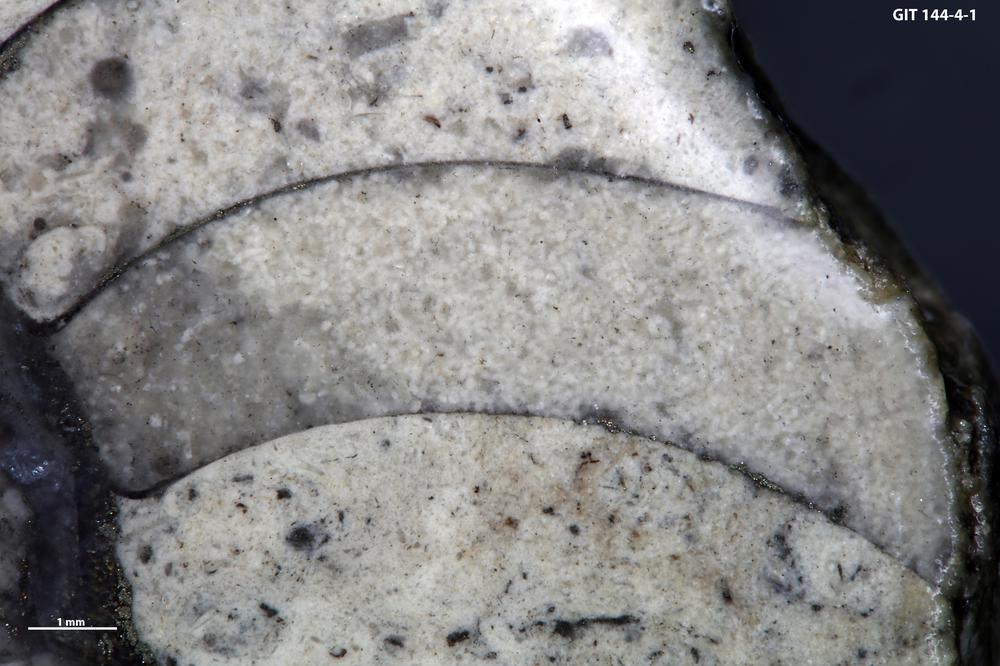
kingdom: Animalia
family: Coprulidae
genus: Coprulus
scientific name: Coprulus
